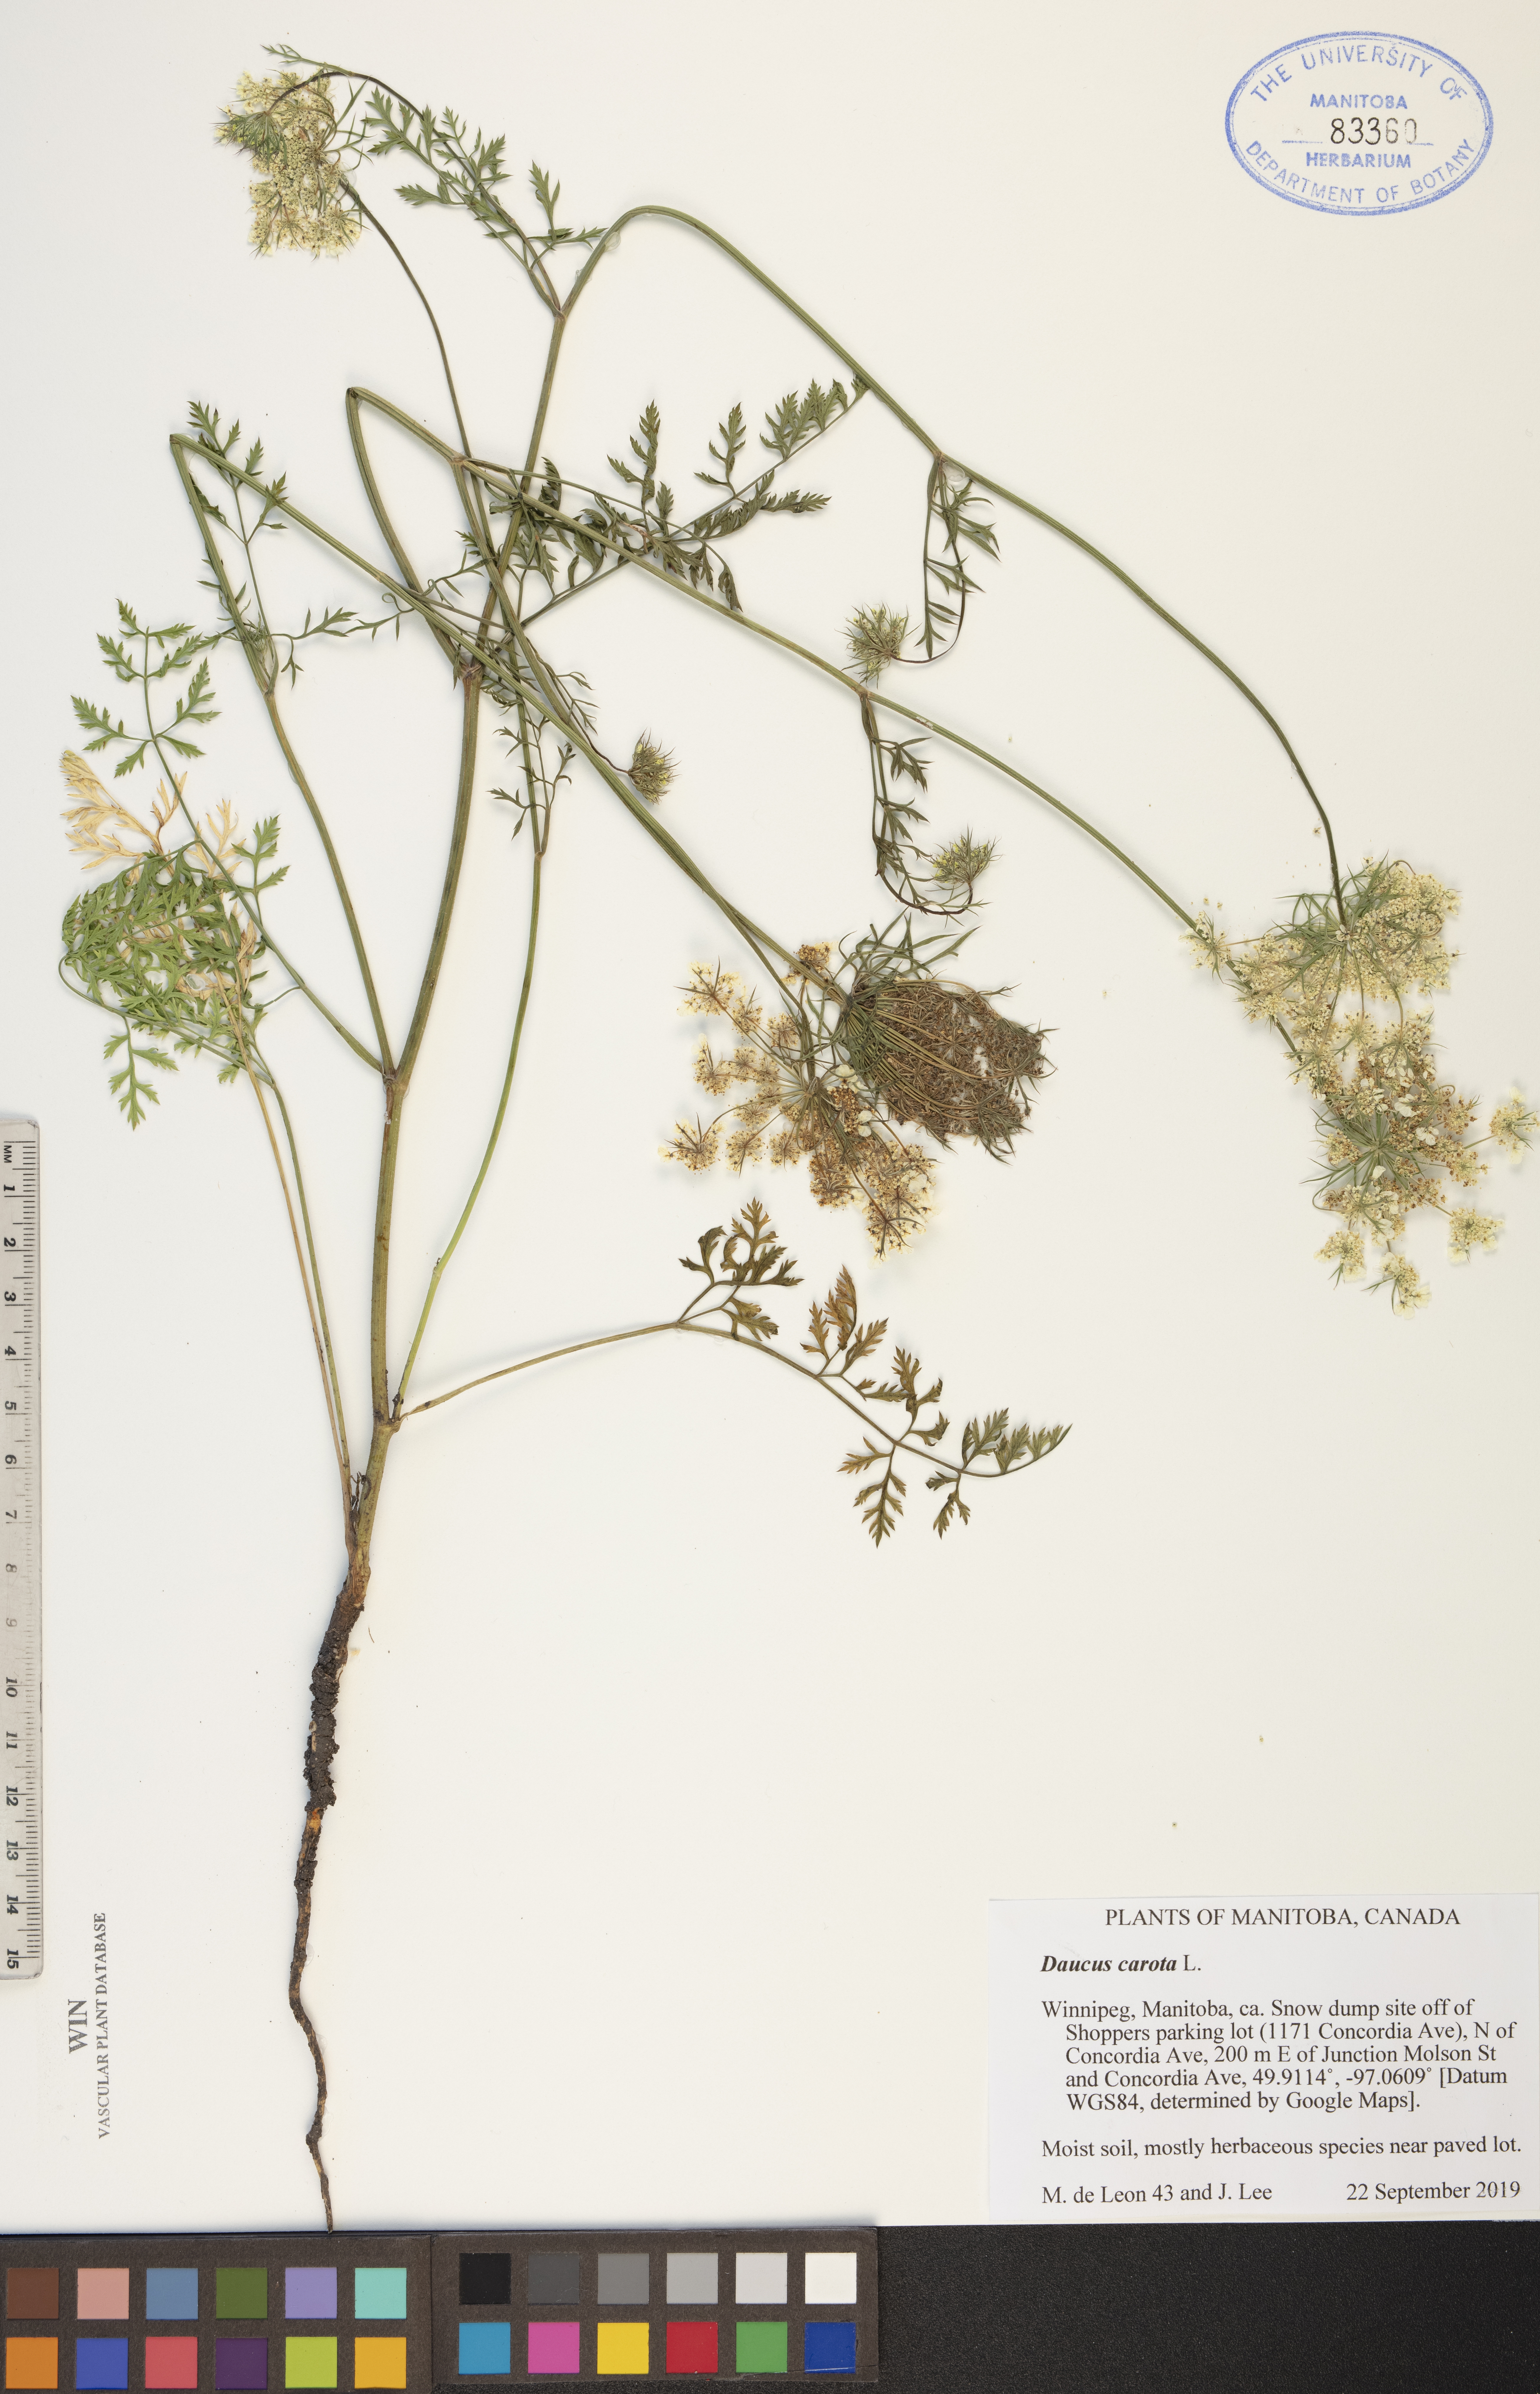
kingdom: Plantae
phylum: Tracheophyta
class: Magnoliopsida
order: Apiales
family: Apiaceae
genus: Daucus
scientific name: Daucus carota
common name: Wild carrot
